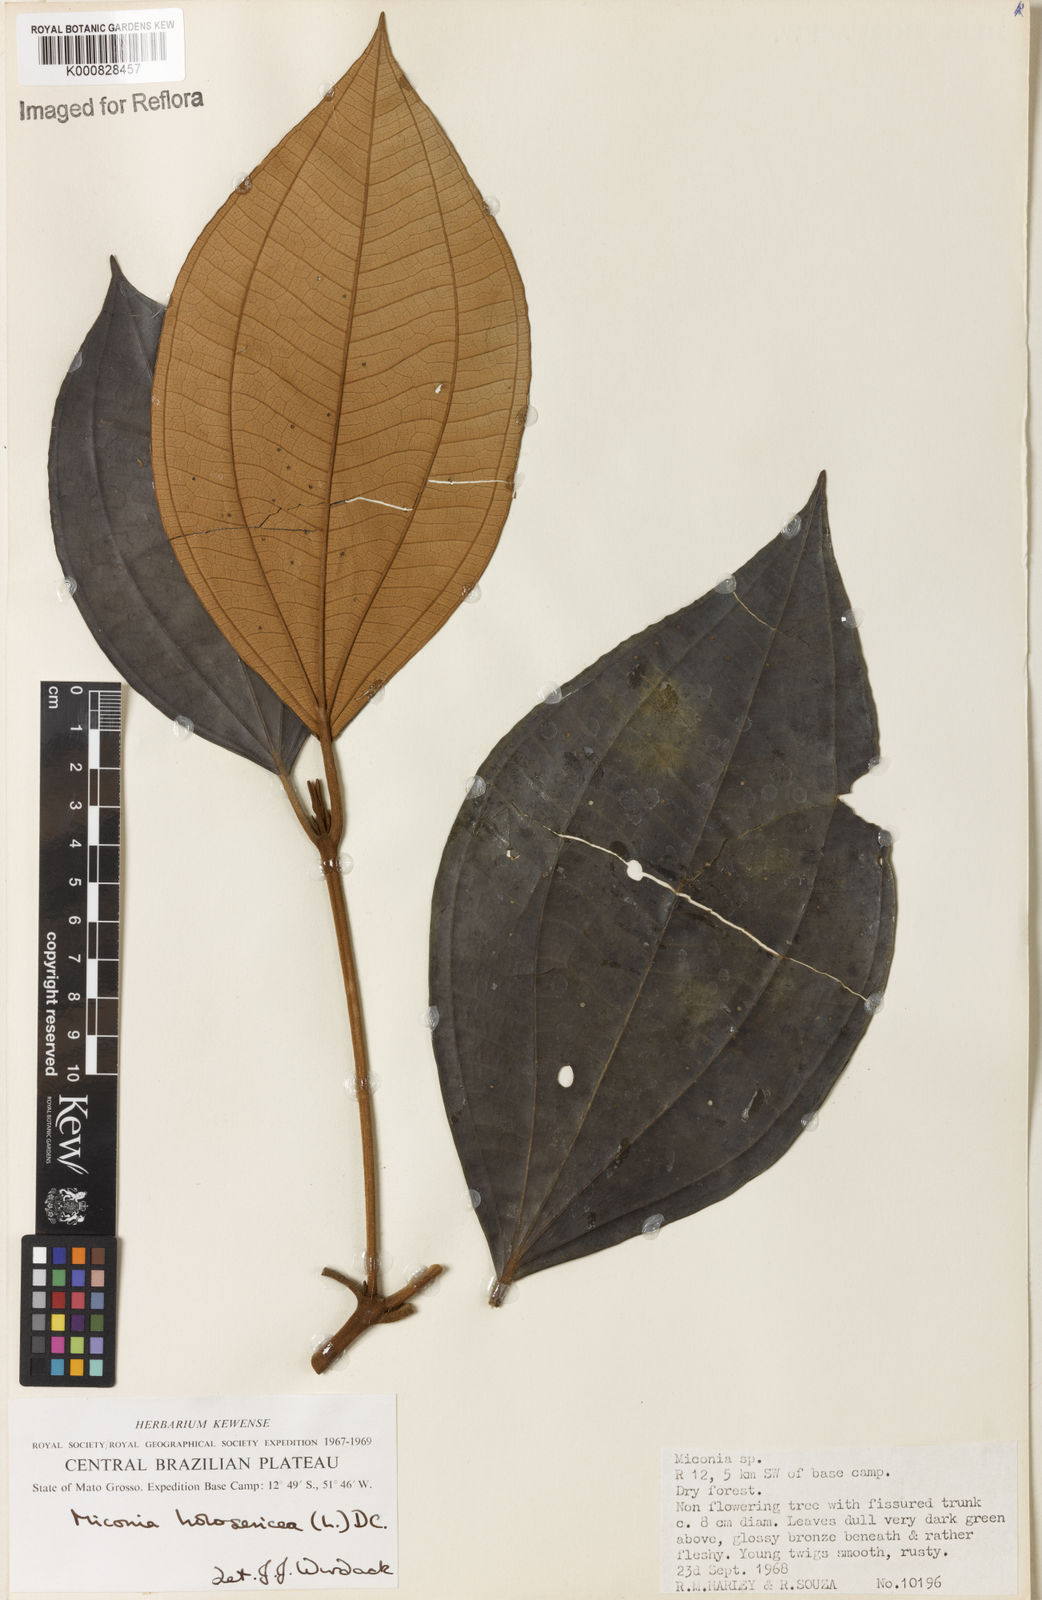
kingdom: Plantae
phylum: Tracheophyta
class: Magnoliopsida
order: Myrtales
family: Melastomataceae
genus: Miconia
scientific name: Miconia holosericea
